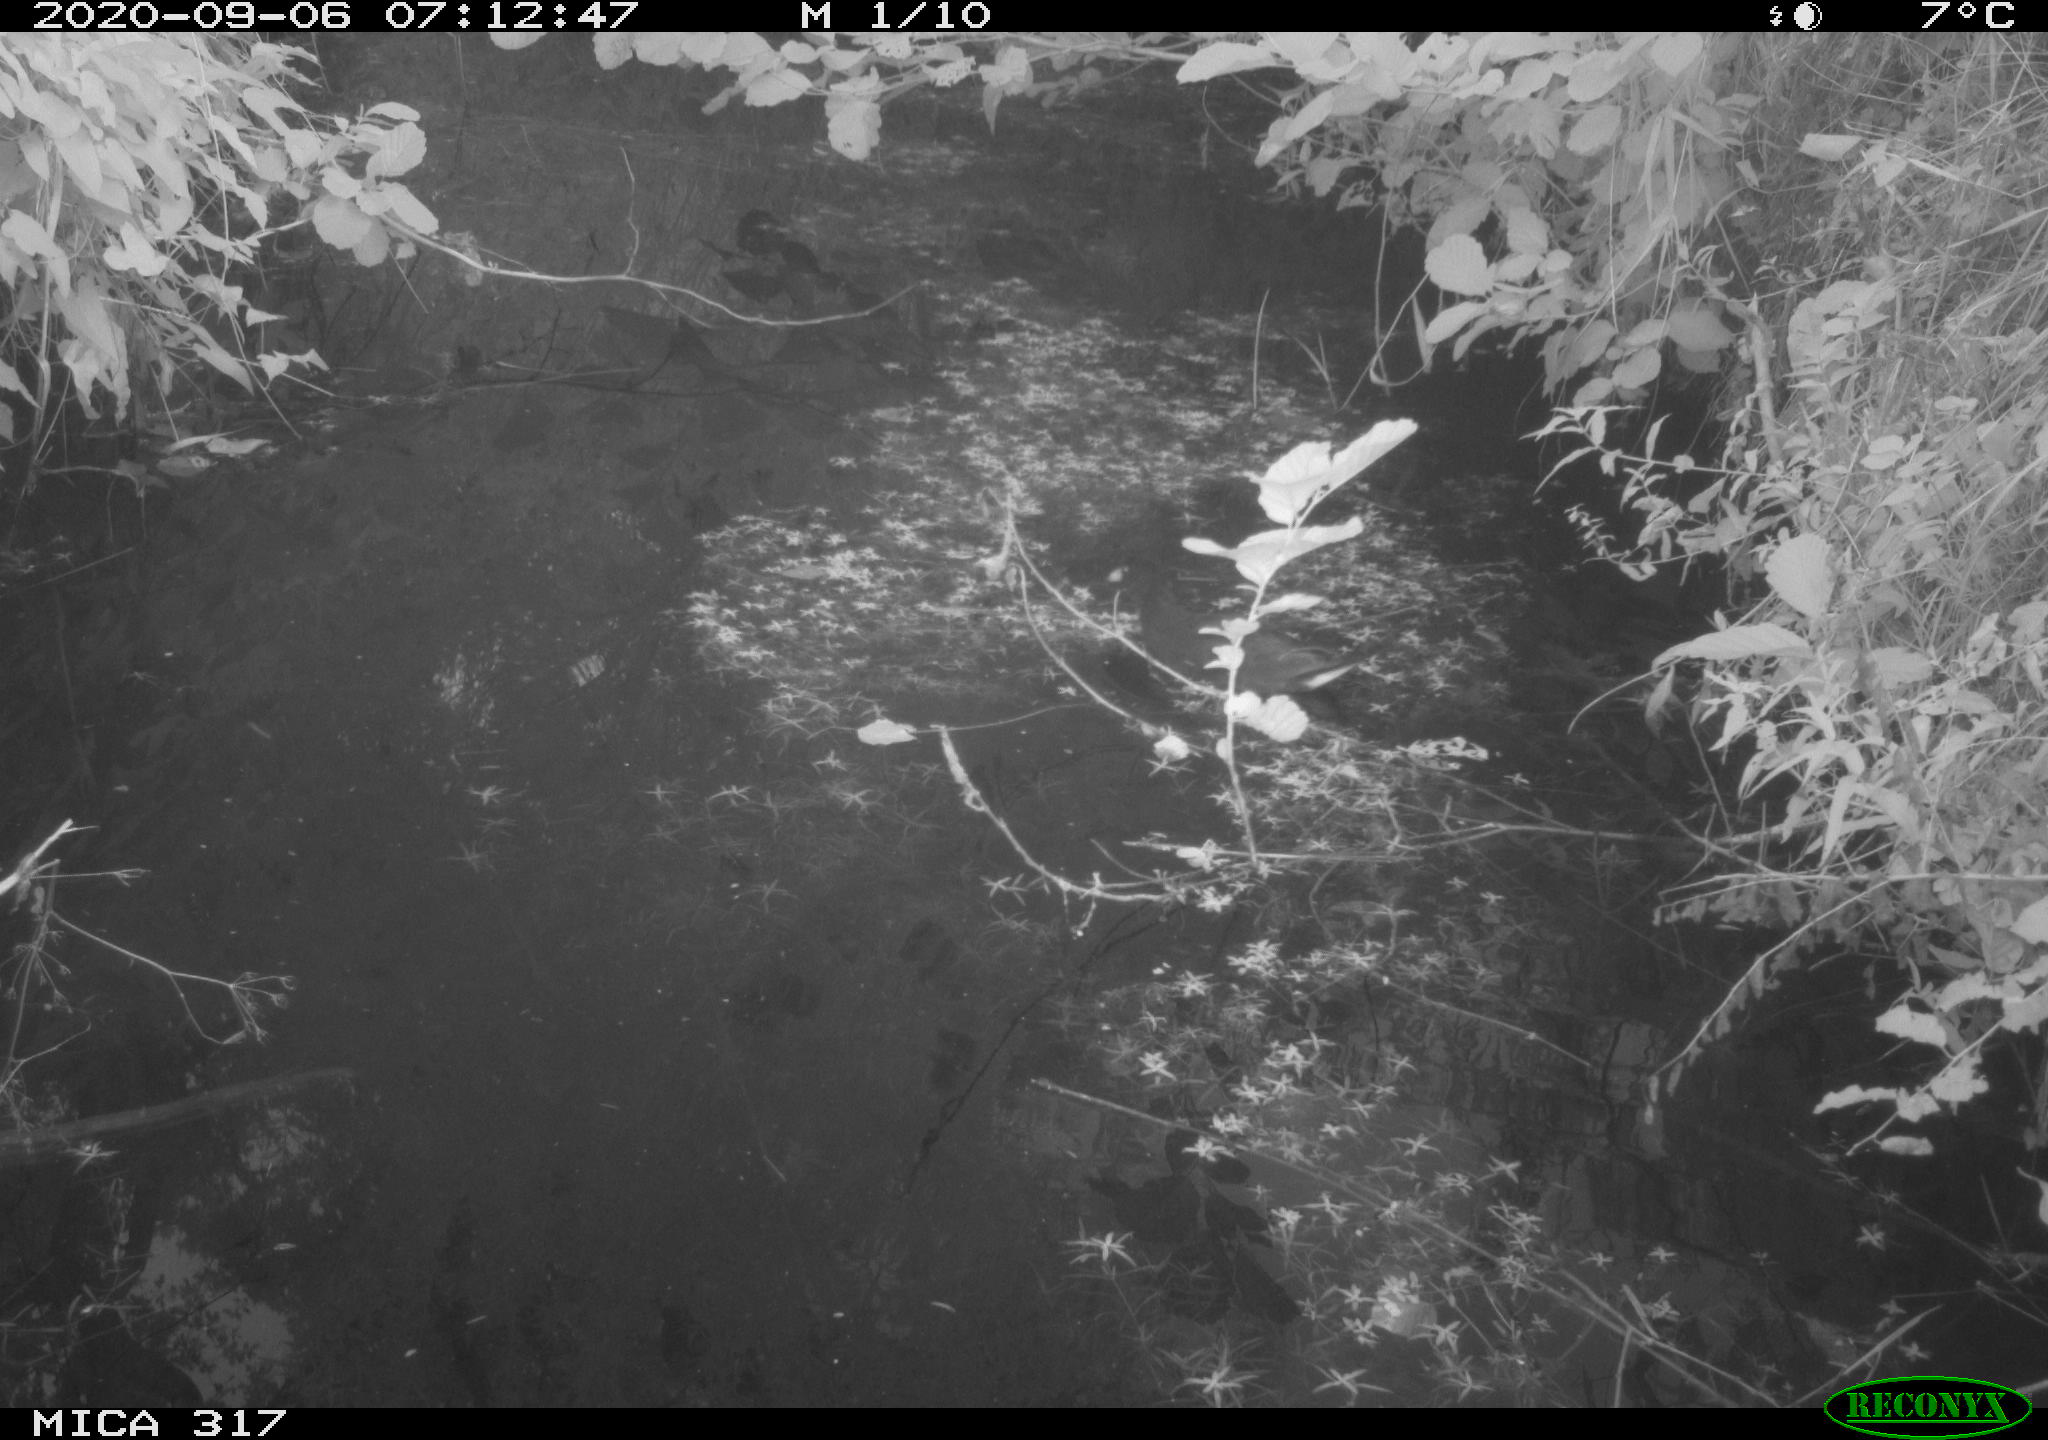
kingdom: Animalia
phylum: Chordata
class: Aves
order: Gruiformes
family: Rallidae
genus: Gallinula
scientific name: Gallinula chloropus
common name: Common moorhen
